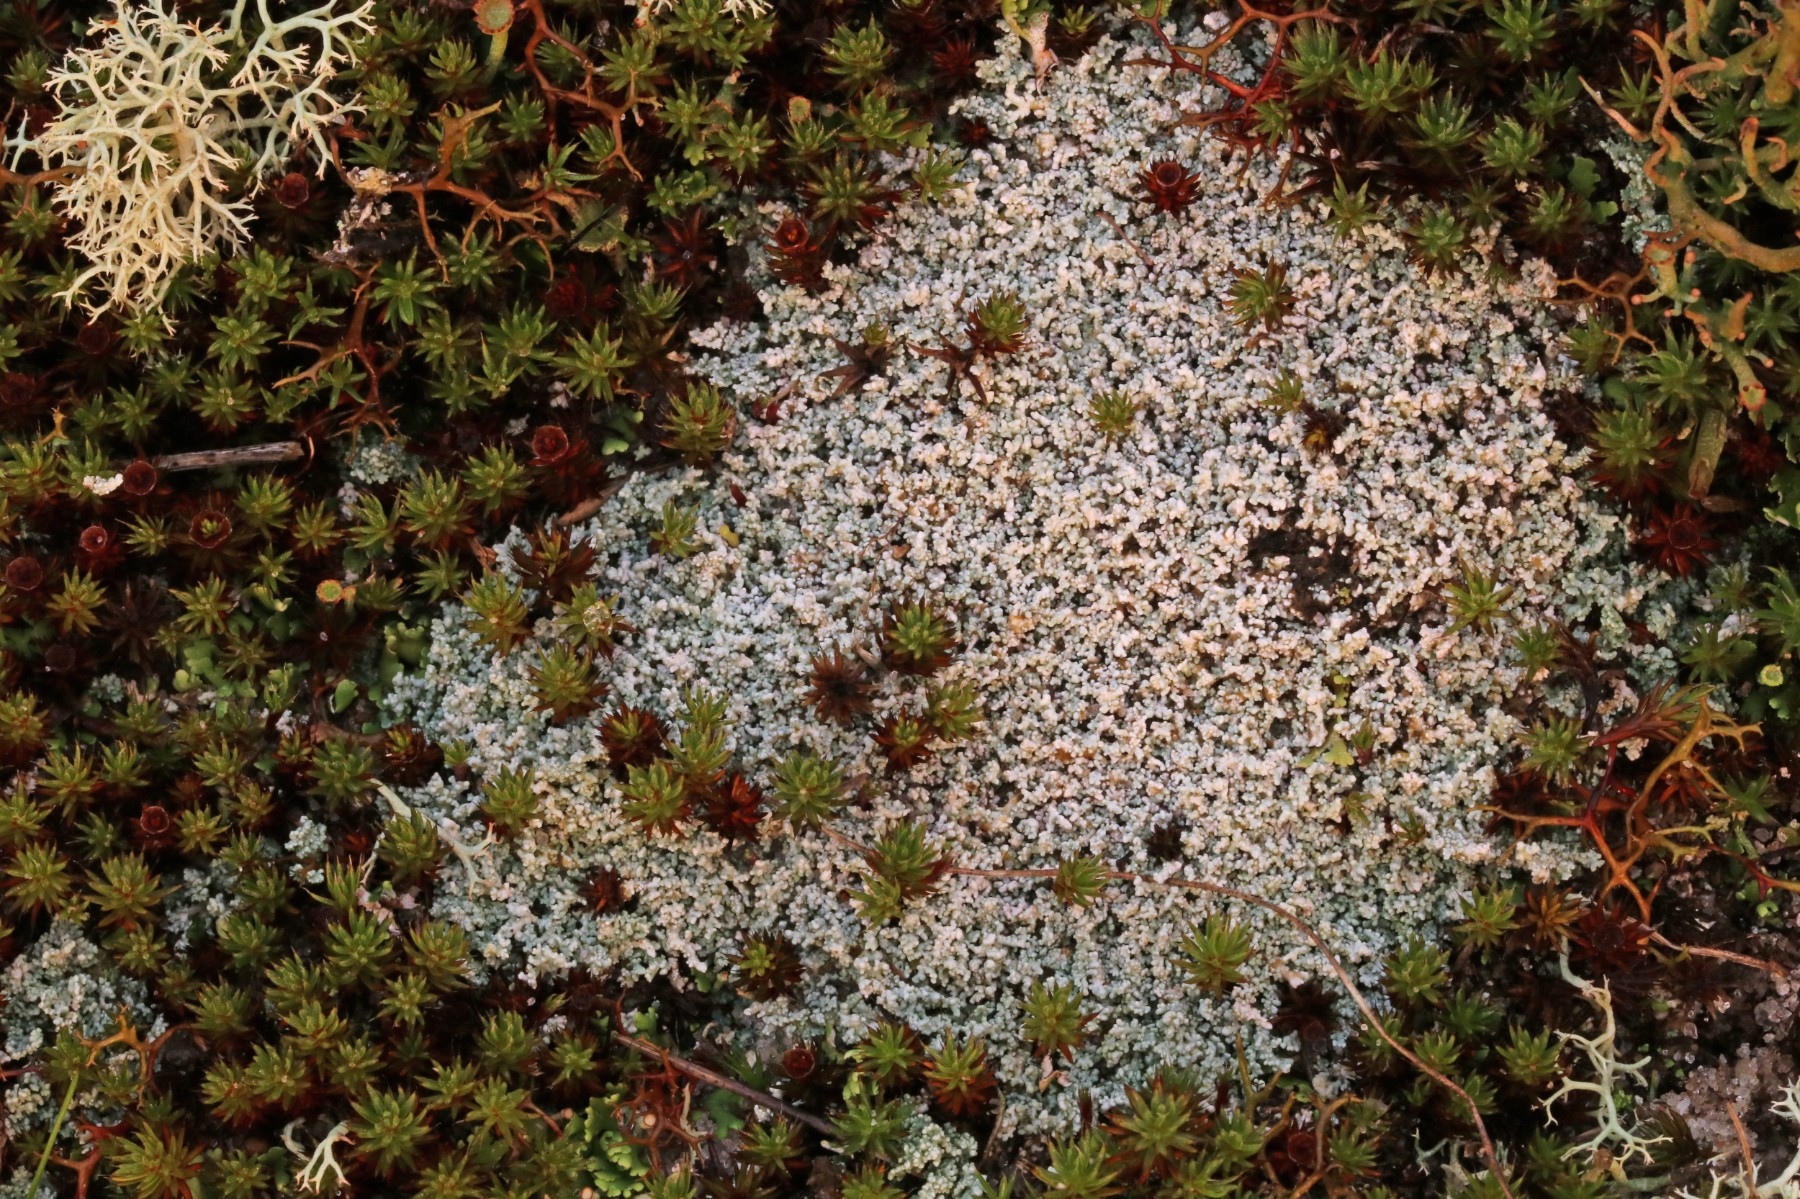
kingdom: Fungi
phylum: Ascomycota
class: Lecanoromycetes
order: Lecanorales
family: Stereocaulaceae
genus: Stereocaulon
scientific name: Stereocaulon condensatum
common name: lav korallav
